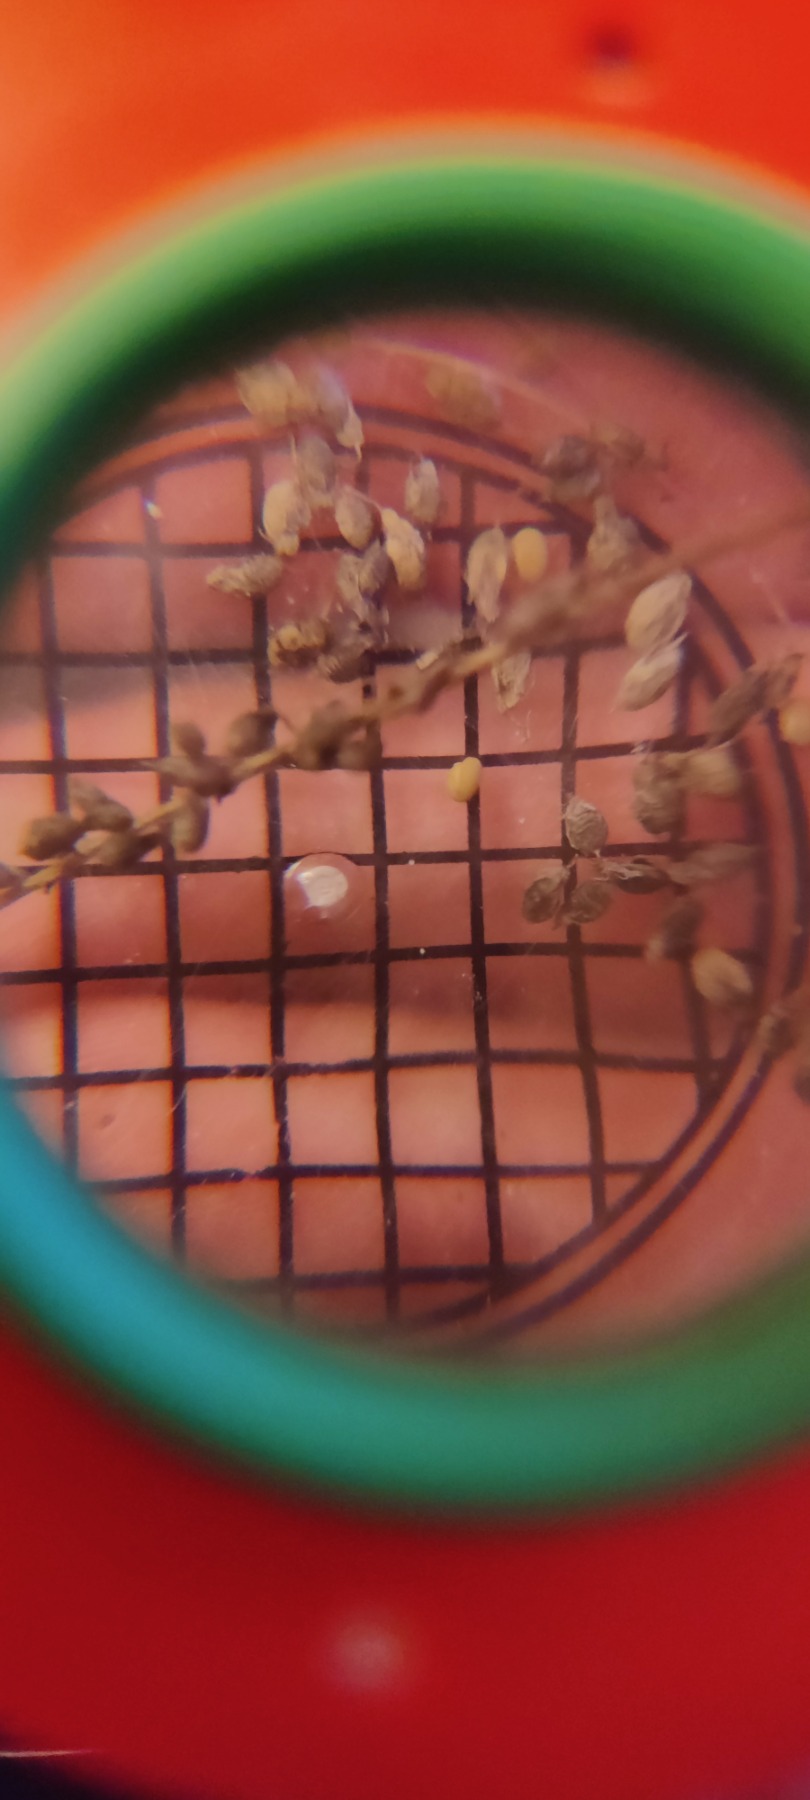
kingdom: Plantae
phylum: Tracheophyta
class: Magnoliopsida
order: Fabales
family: Fabaceae
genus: Melilotus
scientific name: Melilotus altissimus
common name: Høj stenkløver
